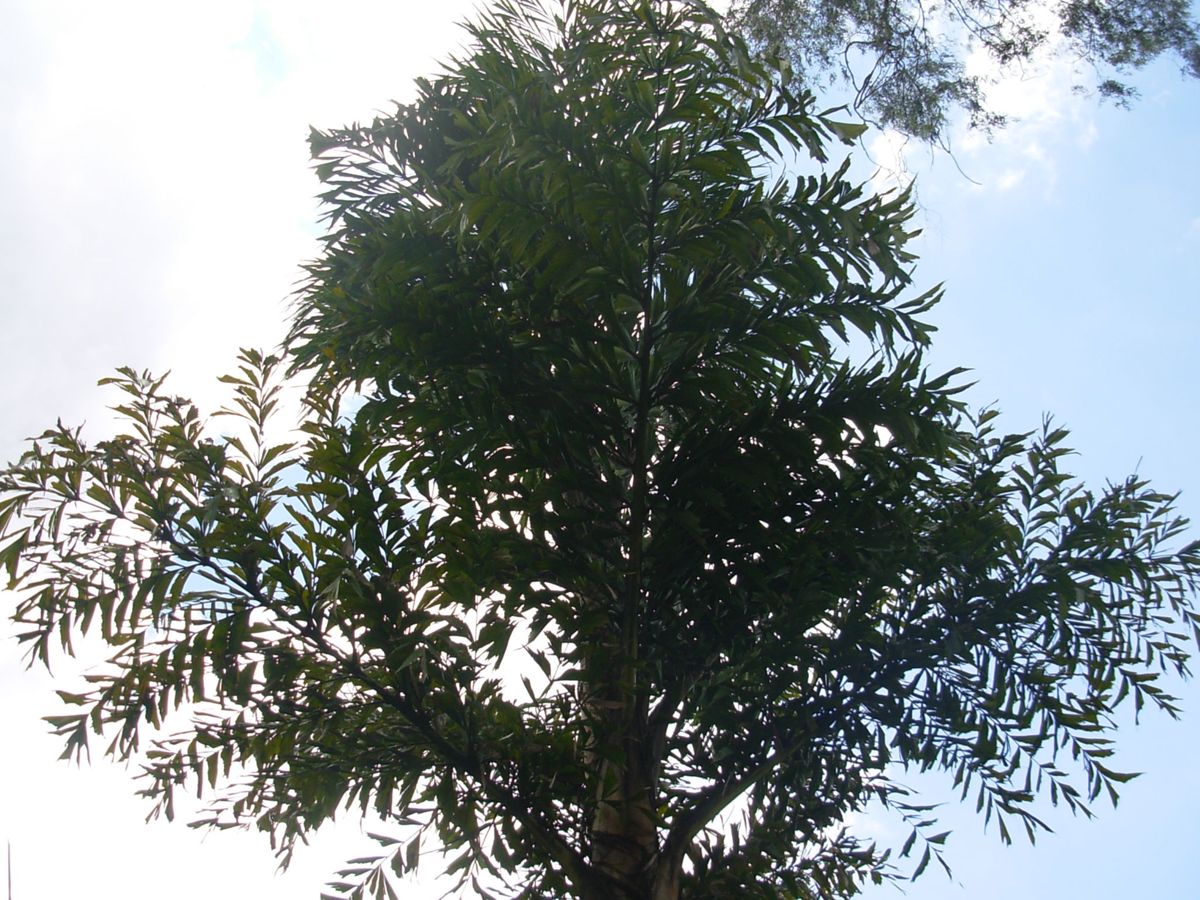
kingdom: Plantae
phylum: Tracheophyta
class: Liliopsida
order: Arecales
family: Arecaceae
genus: Caryota
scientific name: Caryota urens
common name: Jaggery palm
